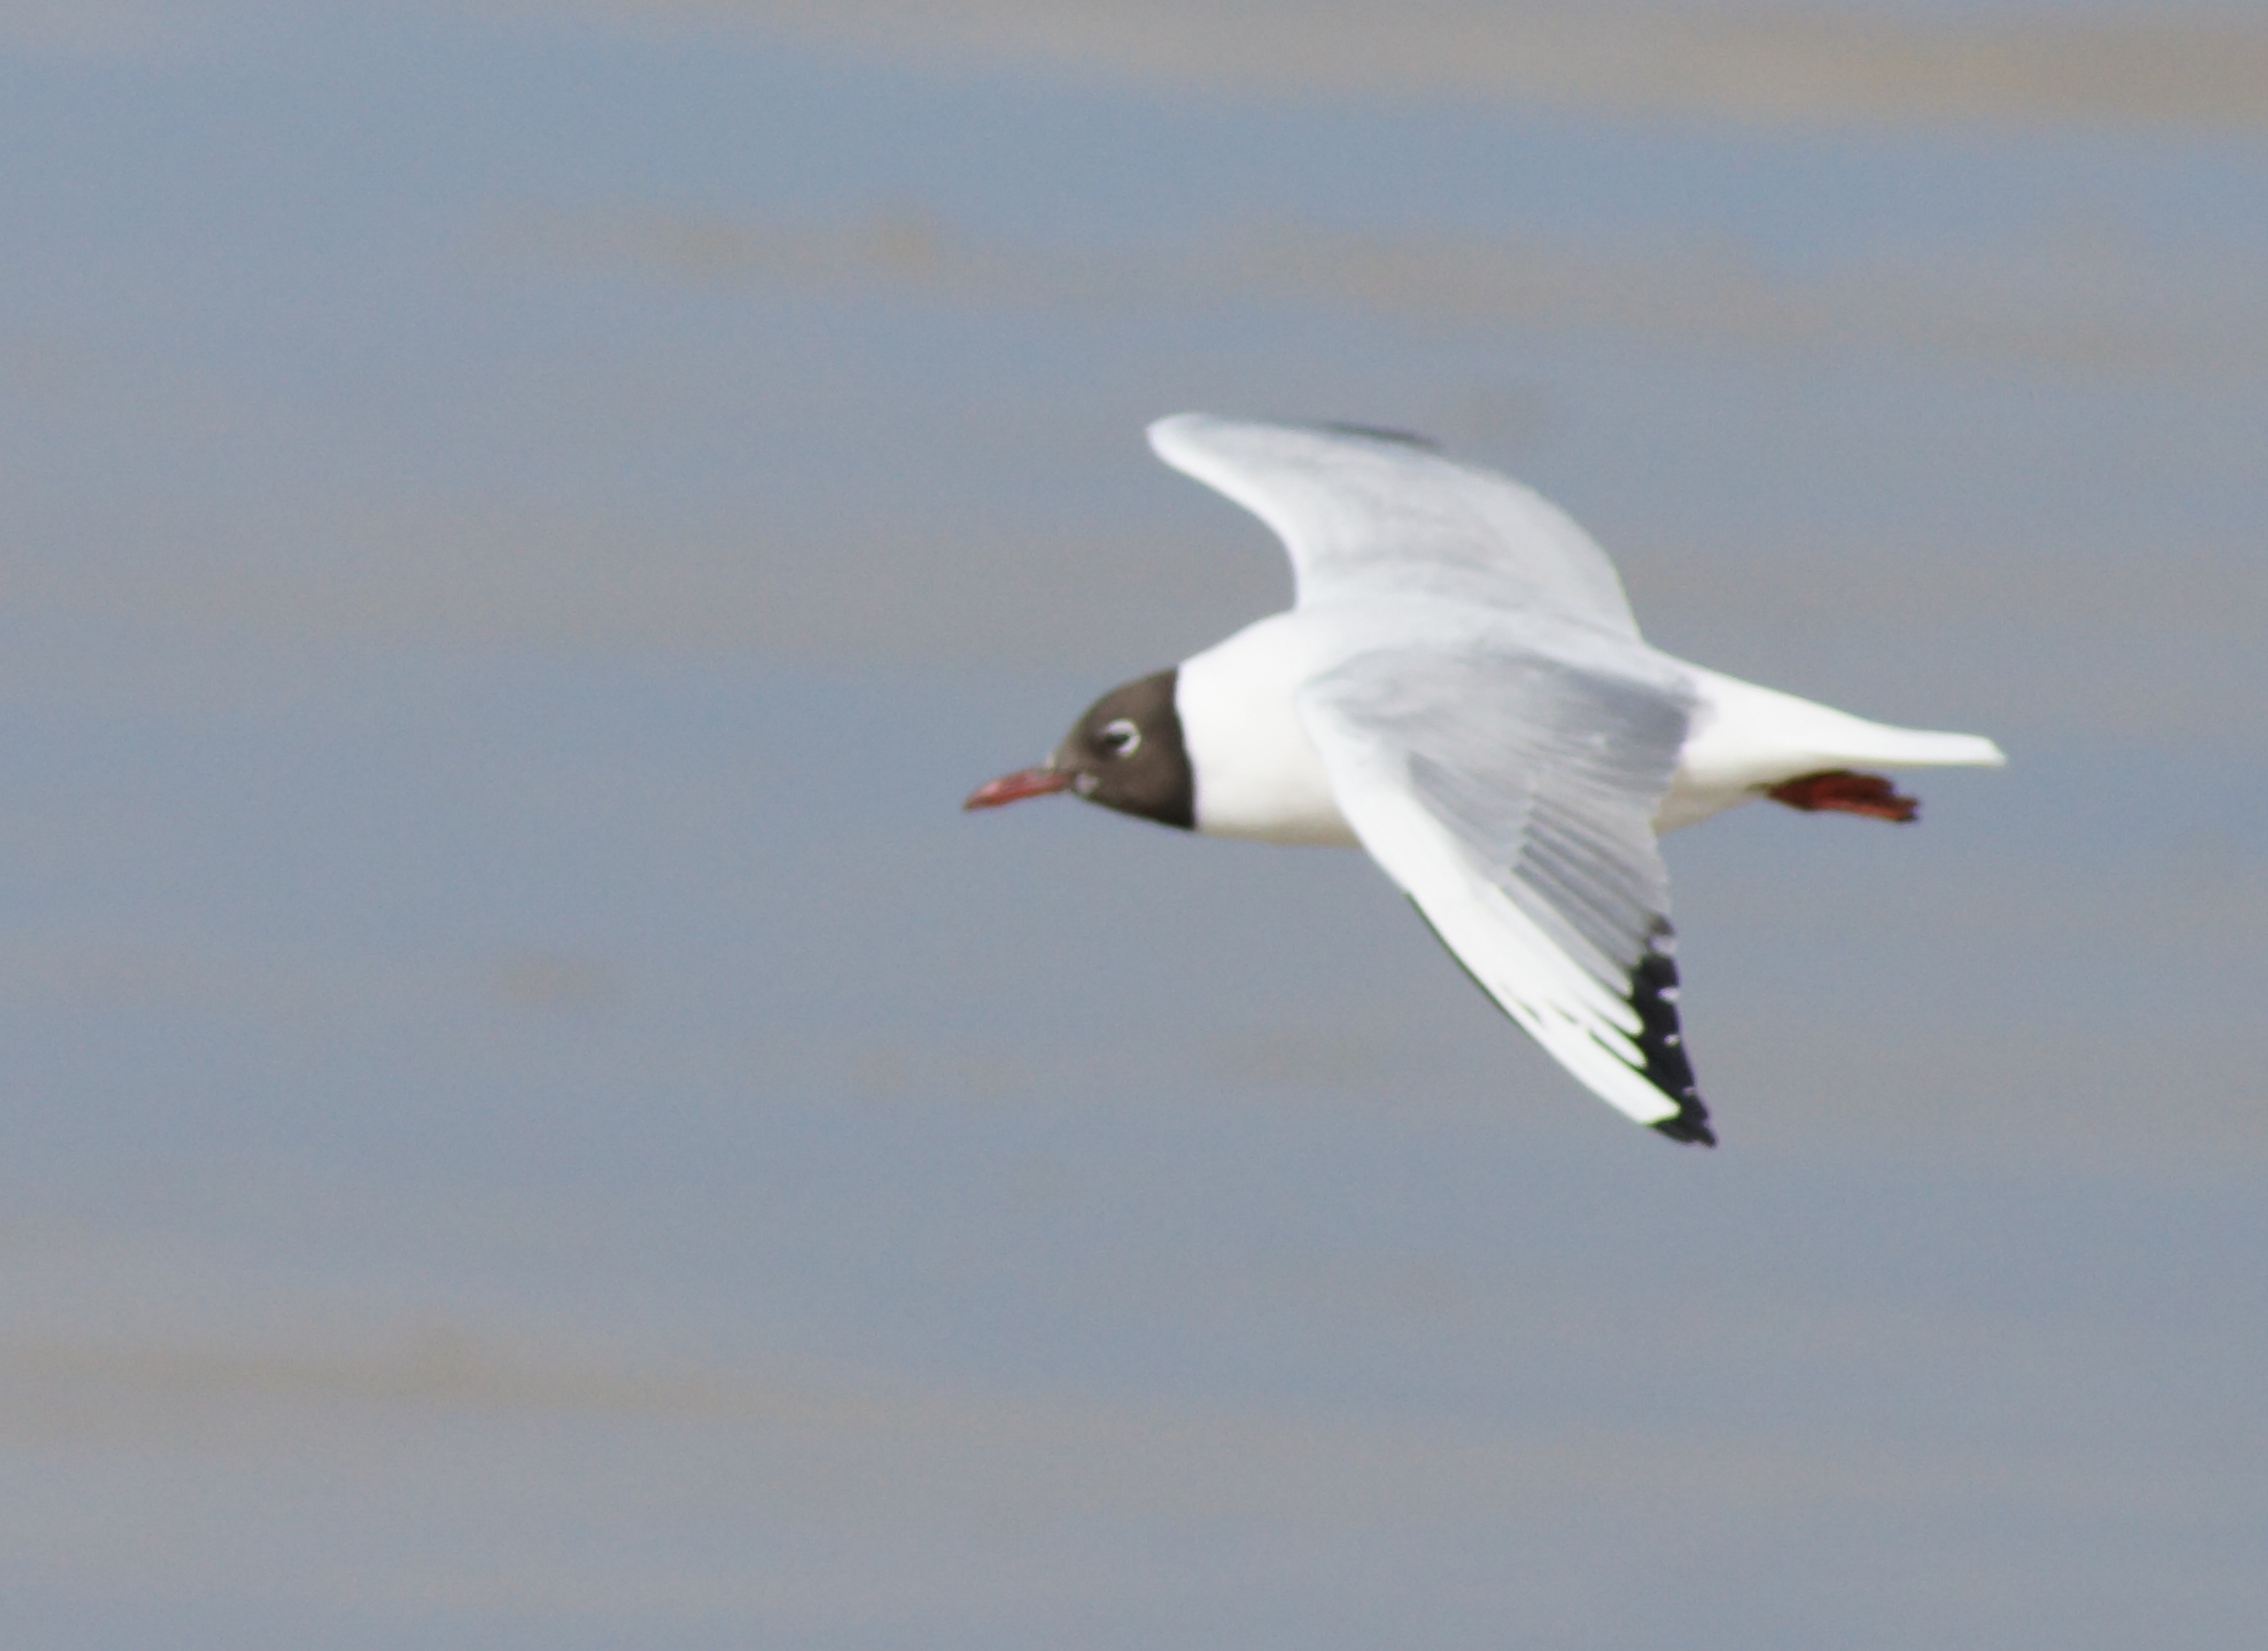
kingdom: Animalia
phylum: Chordata
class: Aves
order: Charadriiformes
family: Laridae
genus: Chroicocephalus
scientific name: Chroicocephalus ridibundus
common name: Hættemåge
